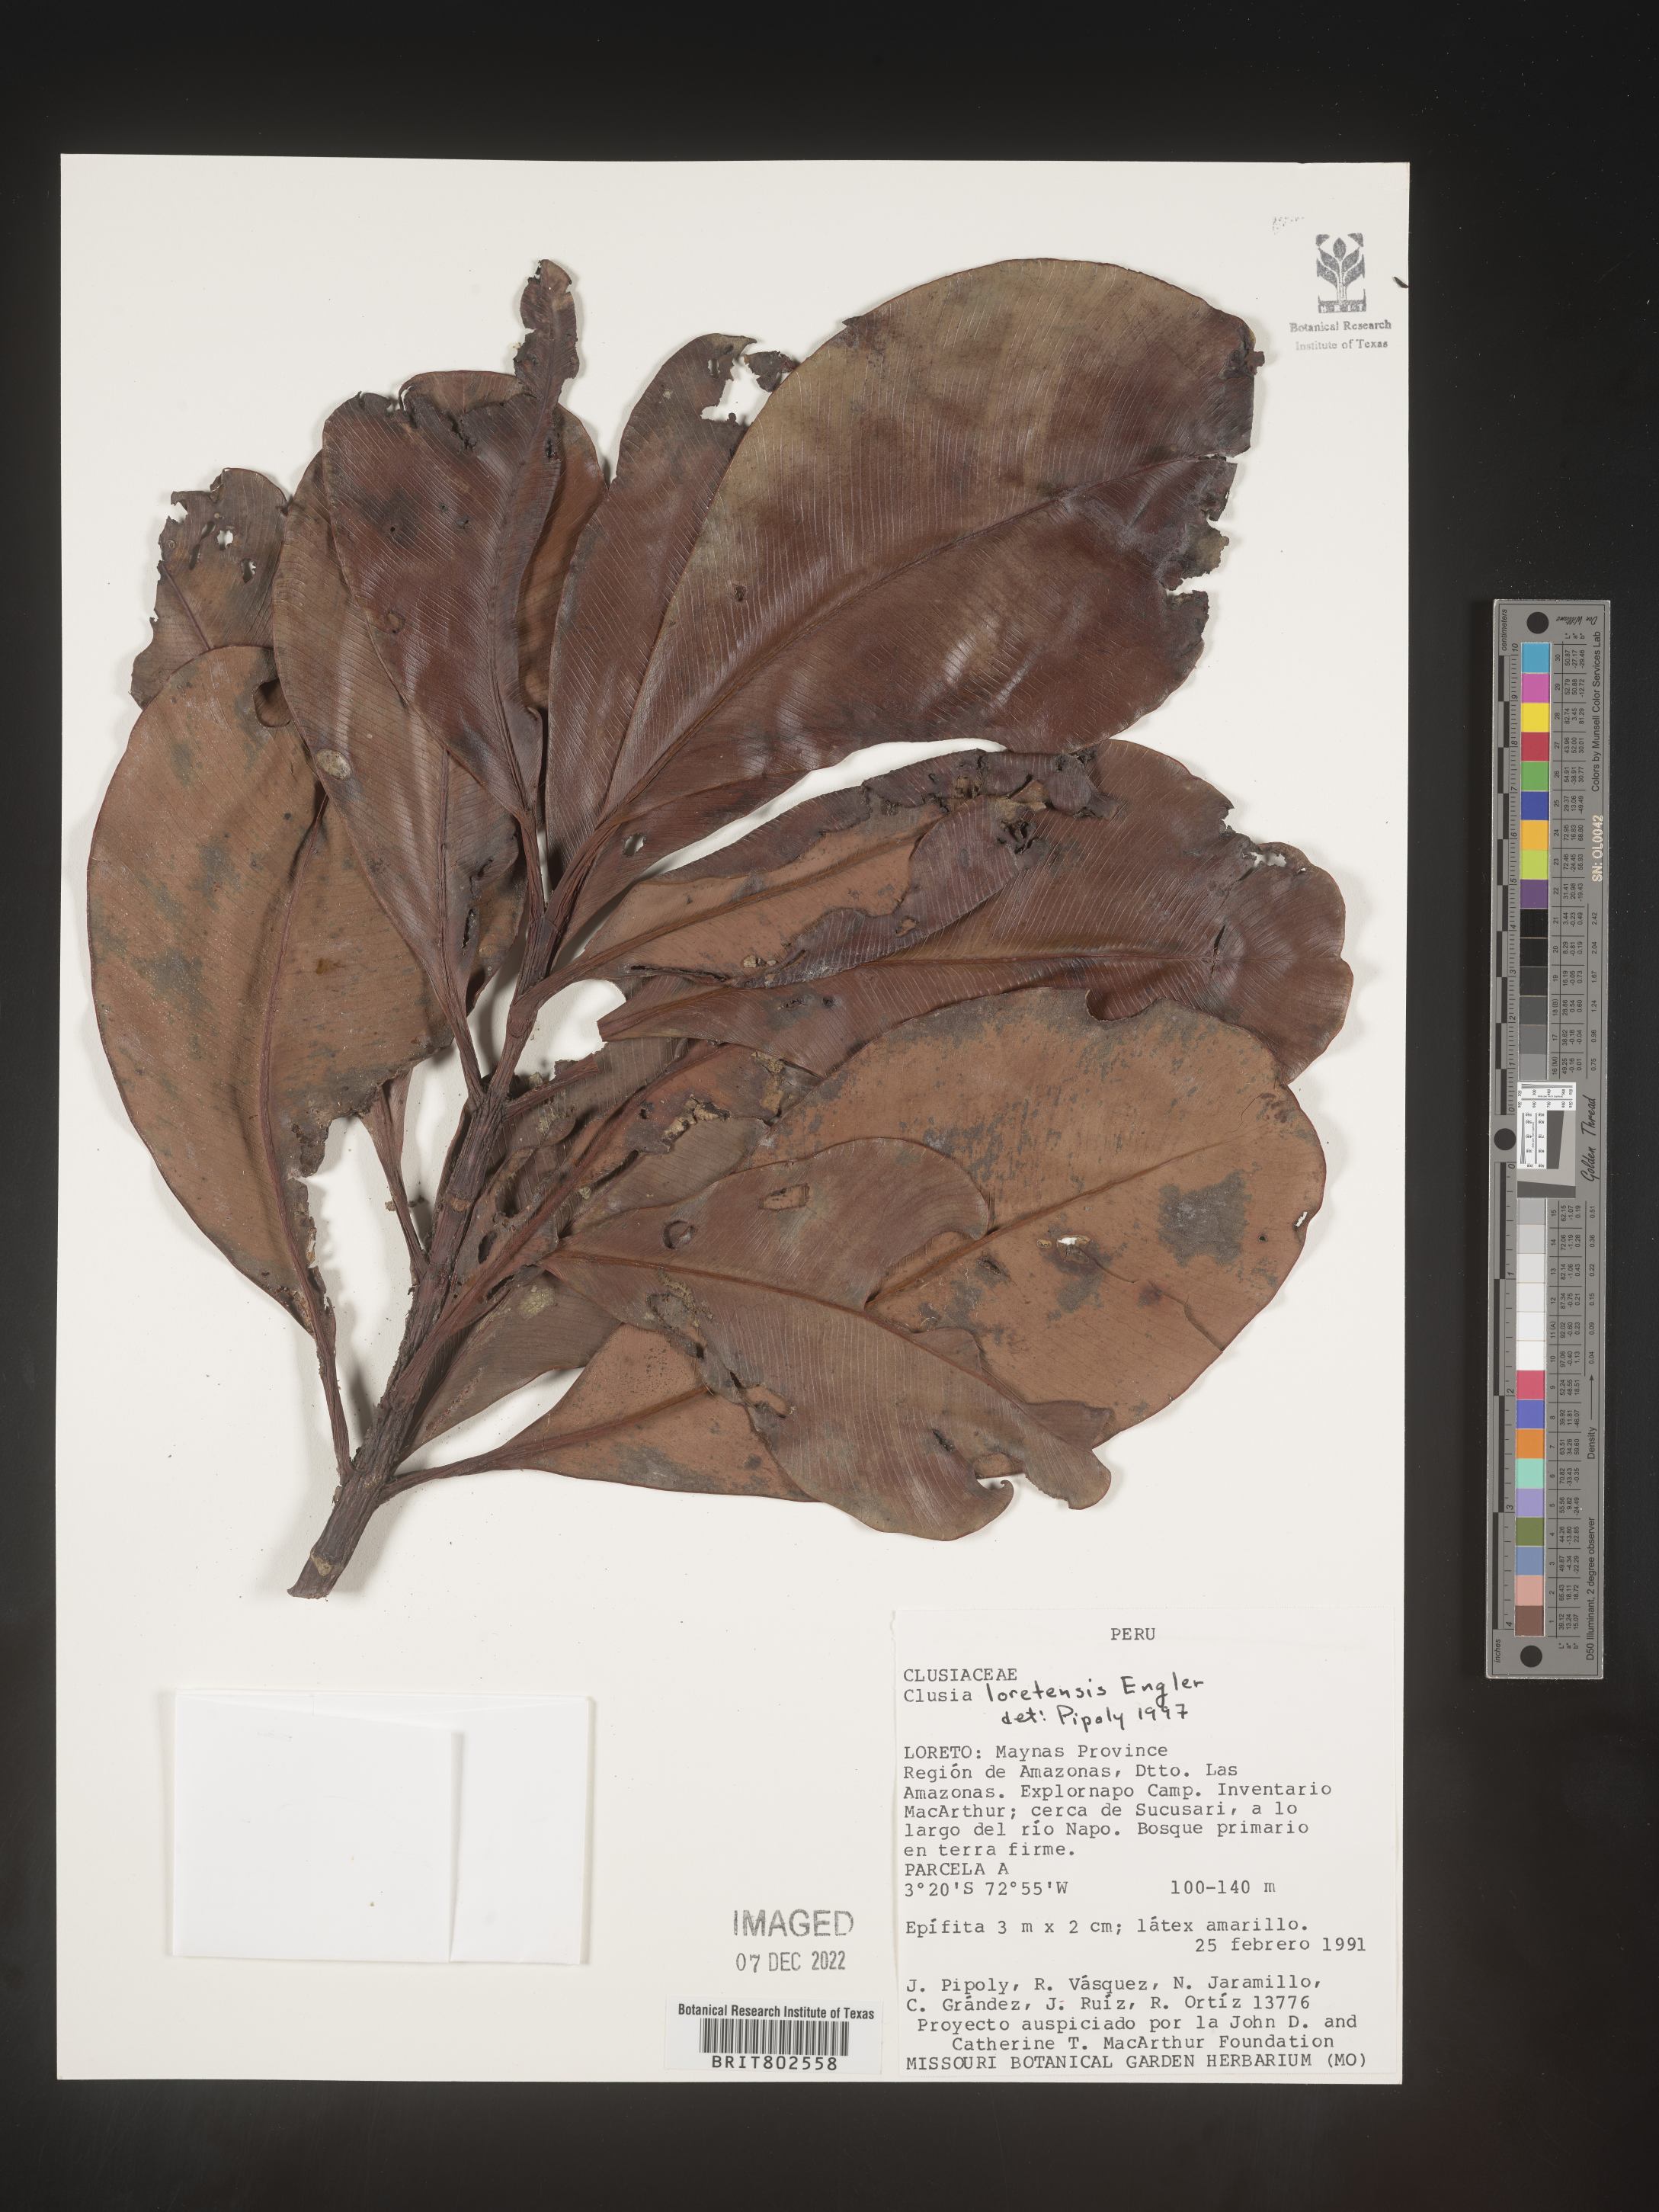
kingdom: Plantae
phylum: Tracheophyta
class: Magnoliopsida
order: Malpighiales
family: Clusiaceae
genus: Clusia
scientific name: Clusia loretensis
